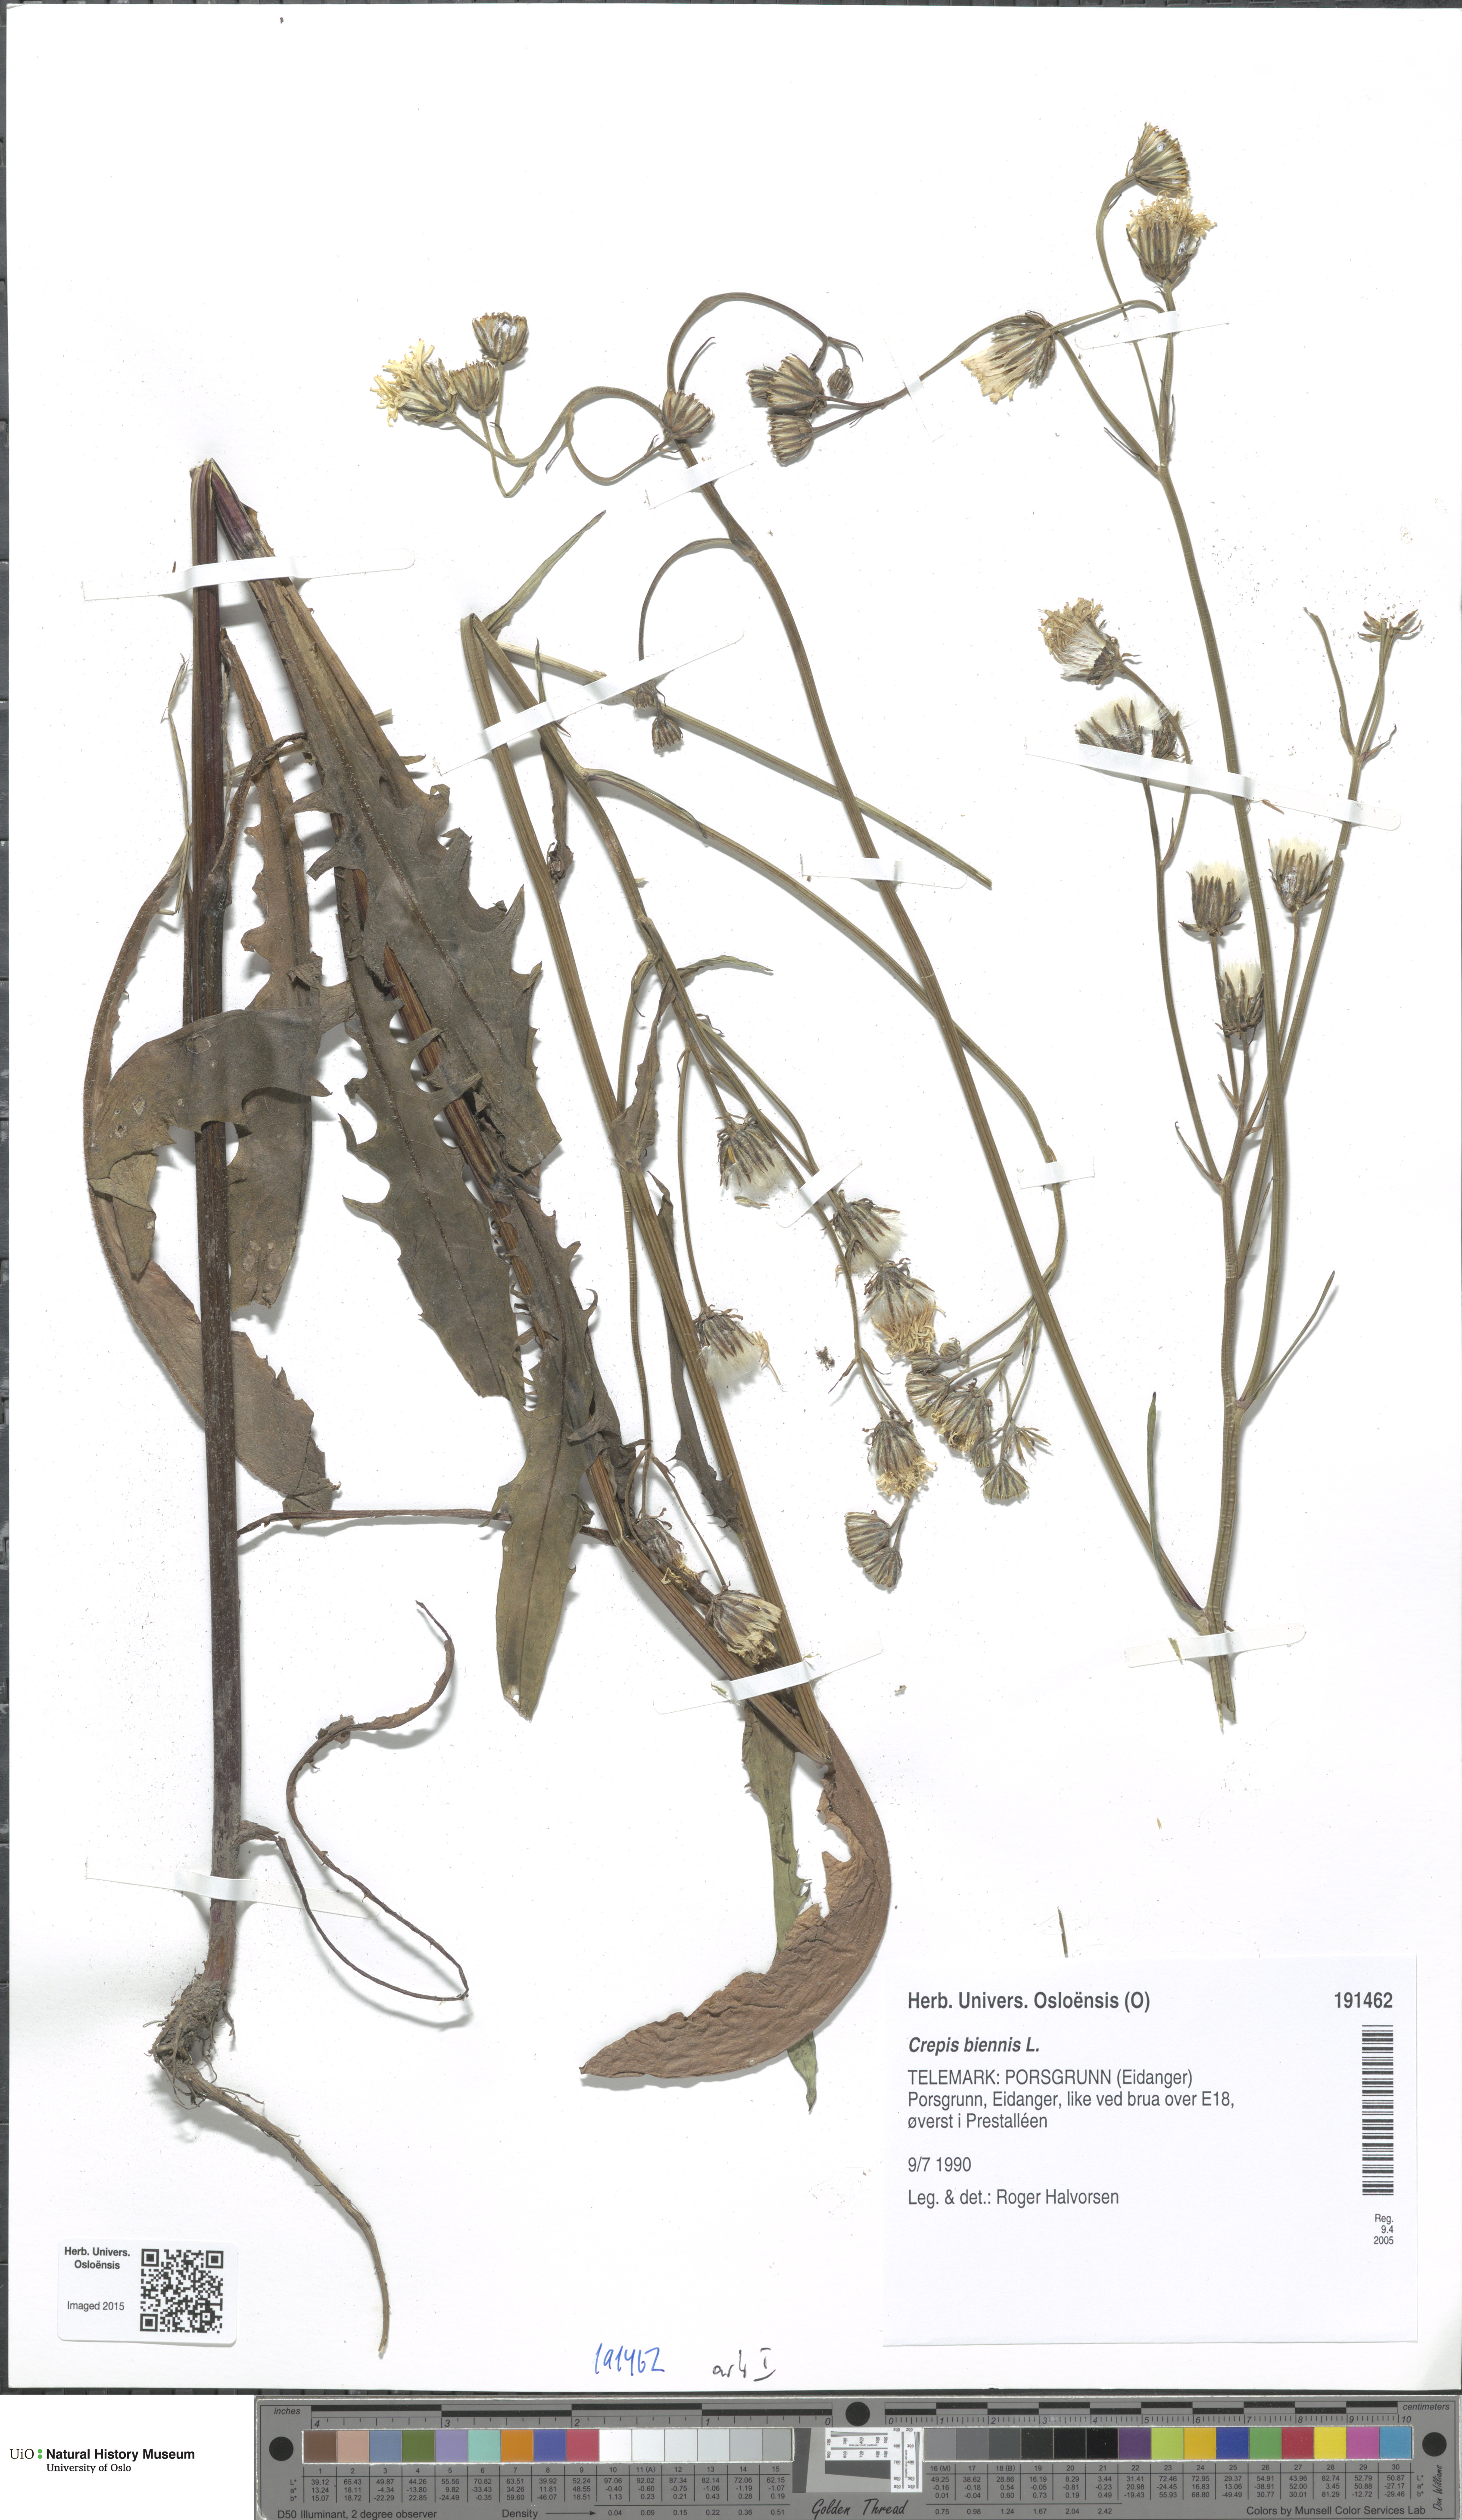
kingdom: Plantae
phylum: Tracheophyta
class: Magnoliopsida
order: Asterales
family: Asteraceae
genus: Crepis
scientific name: Crepis biennis
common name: Rough hawk's-beard
